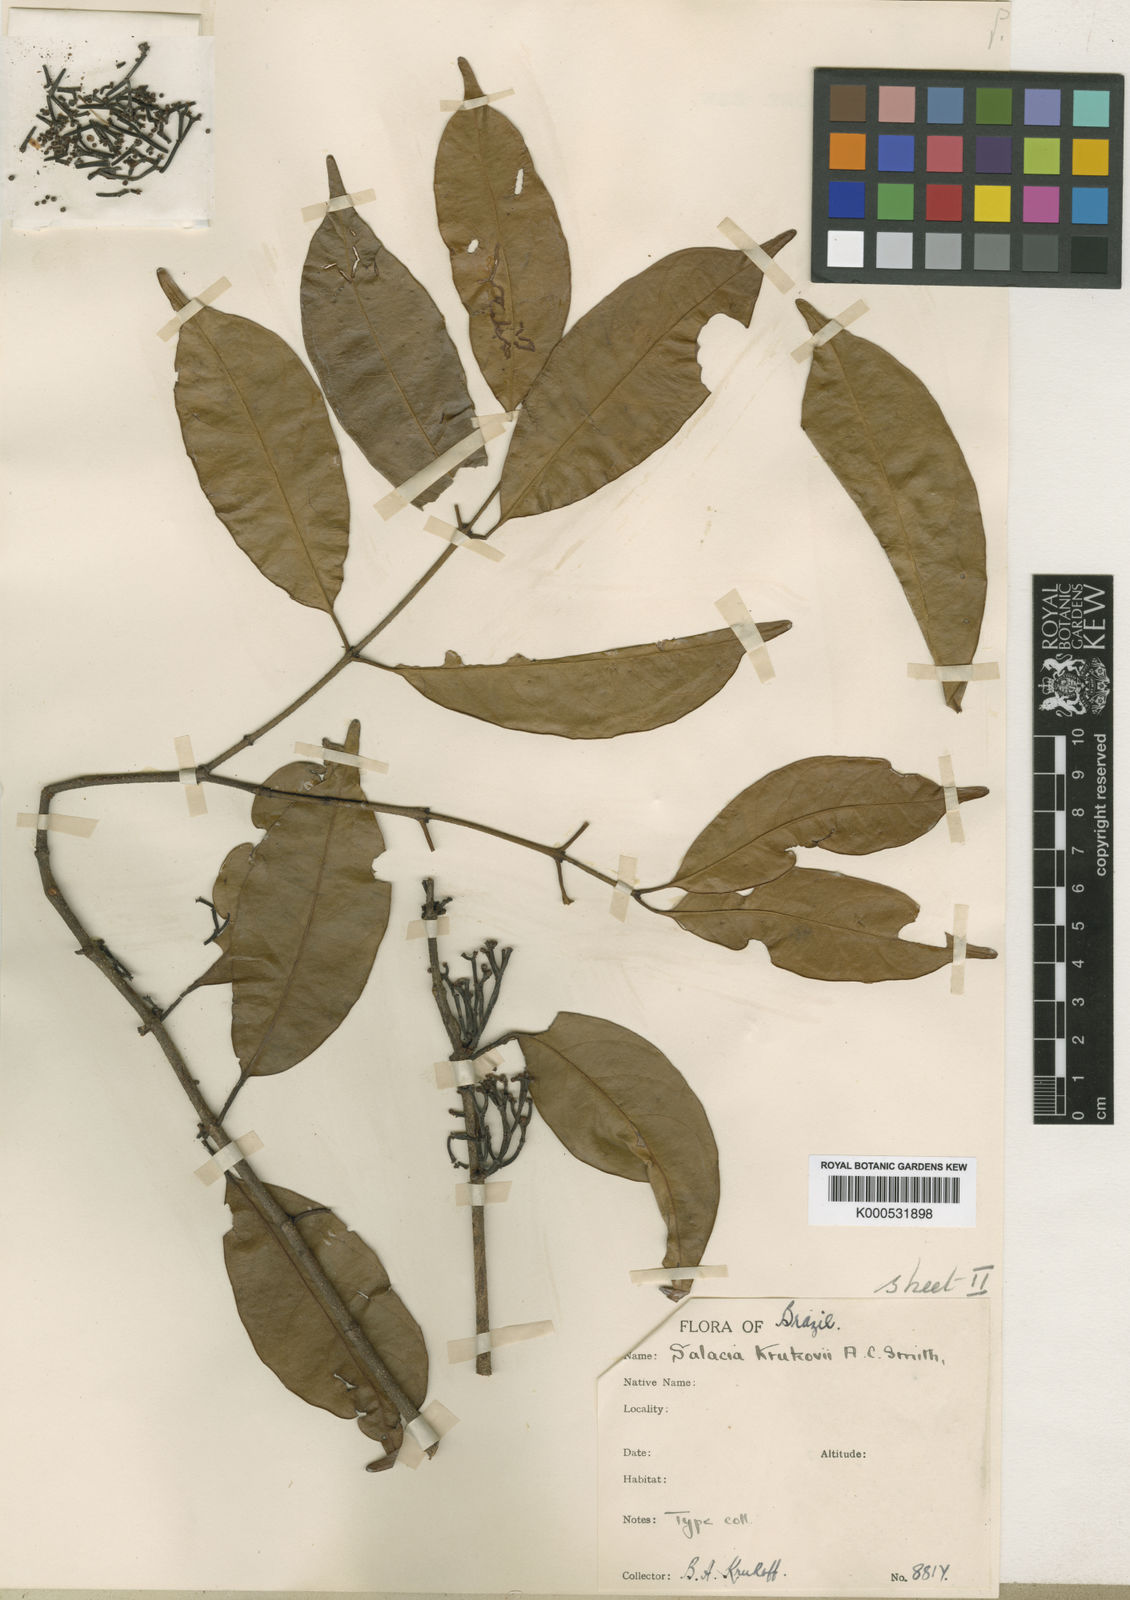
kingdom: Plantae
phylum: Tracheophyta
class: Magnoliopsida
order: Celastrales
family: Celastraceae
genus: Cheiloclinium
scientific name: Cheiloclinium gleasonianum
